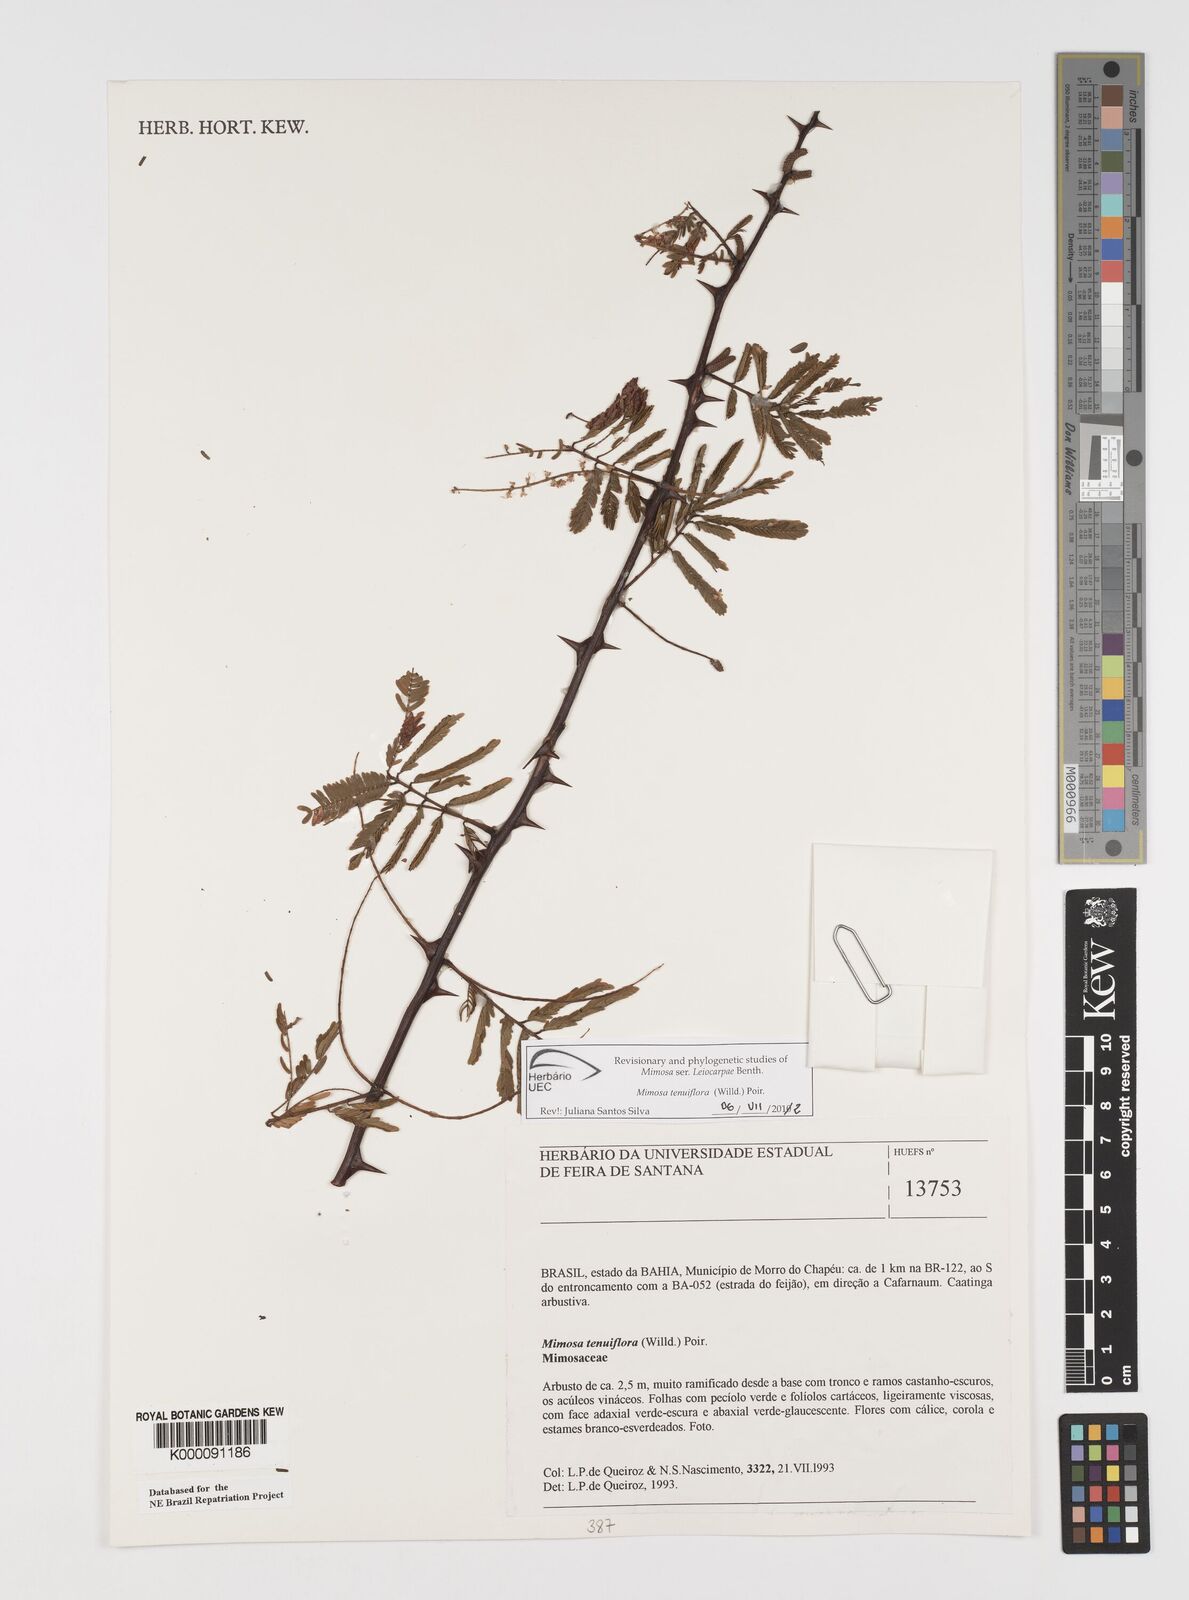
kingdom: Plantae
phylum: Tracheophyta
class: Magnoliopsida
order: Fabales
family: Fabaceae
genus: Mimosa
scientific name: Mimosa tenuiflora
